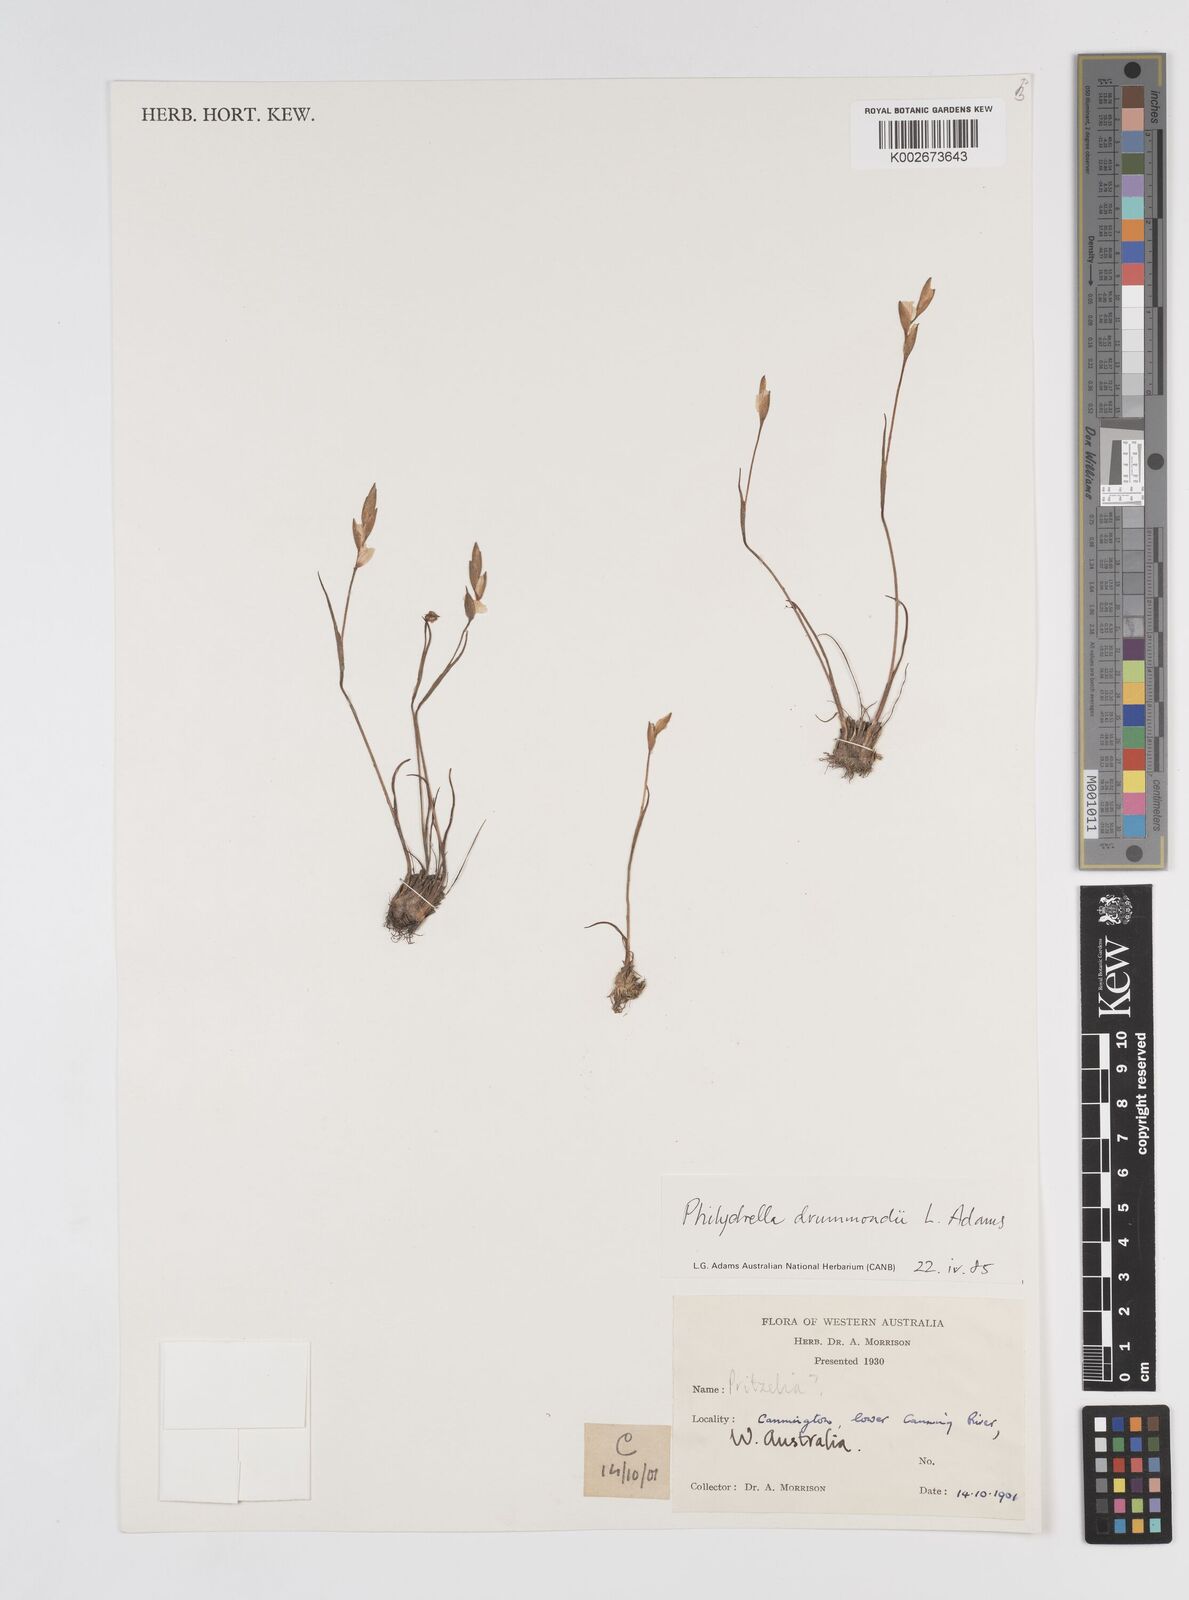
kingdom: Plantae
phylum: Tracheophyta
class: Liliopsida
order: Commelinales
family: Philydraceae
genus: Philydrella
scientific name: Philydrella drummondii
